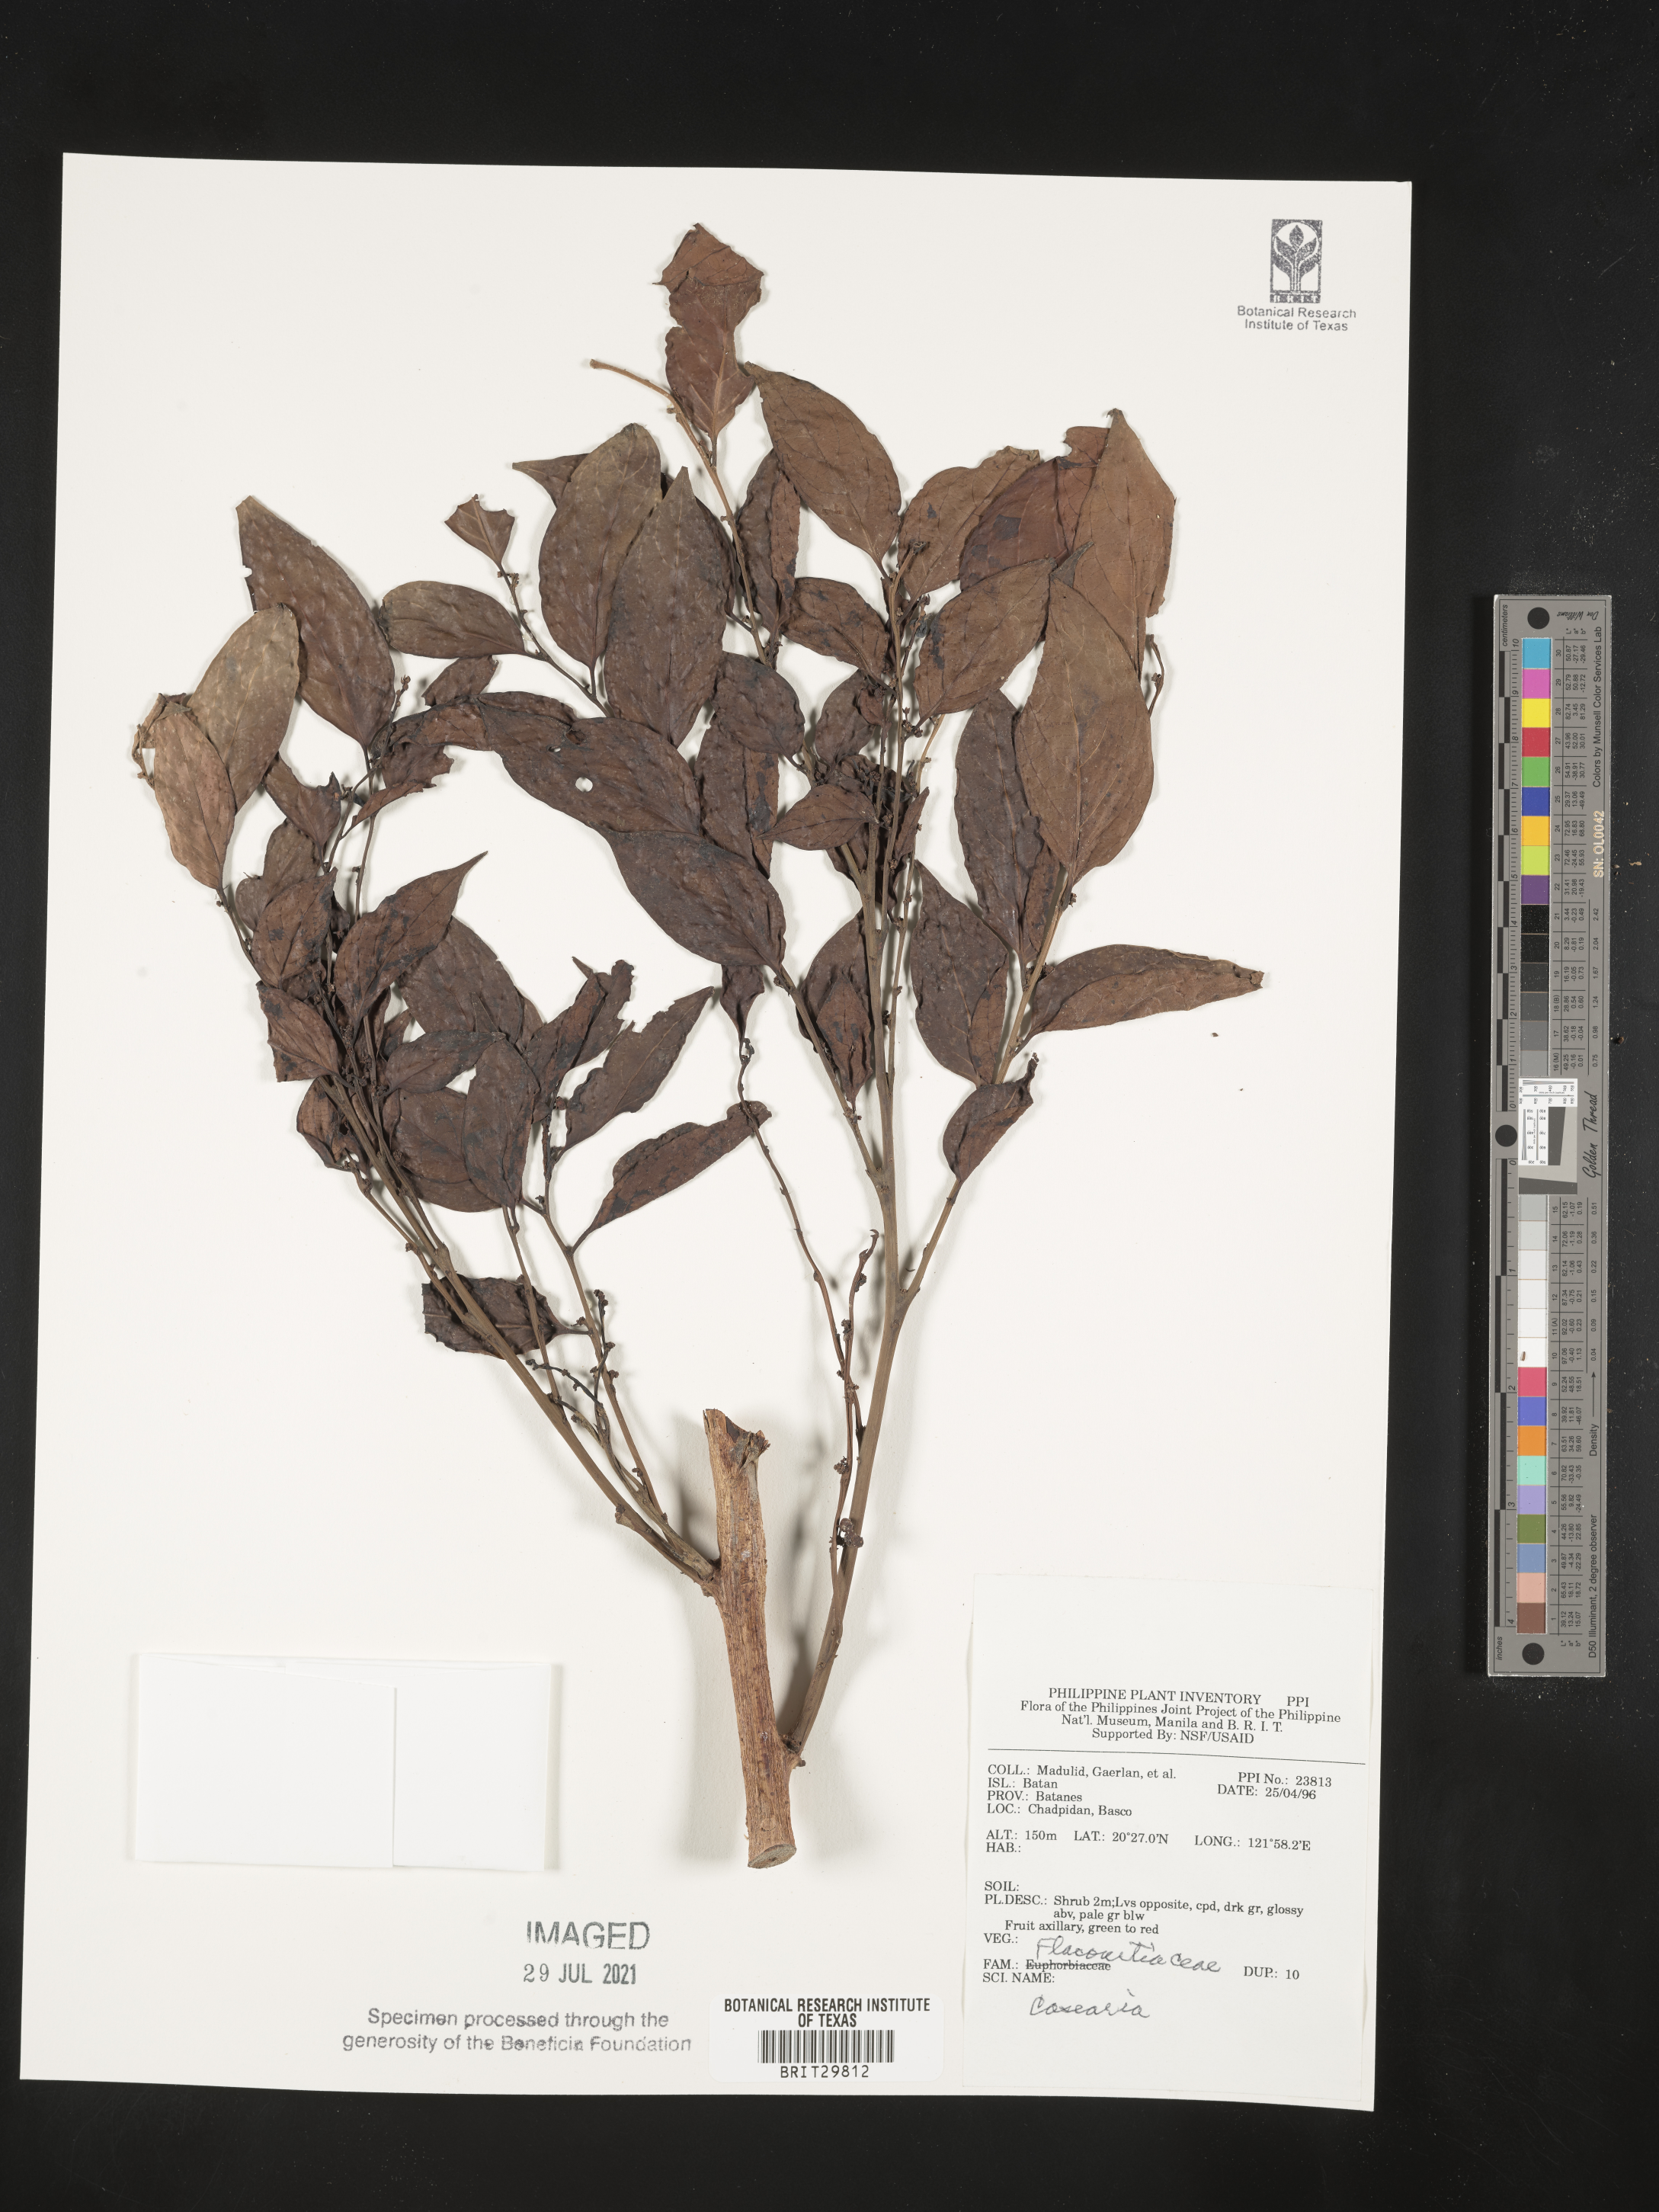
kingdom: Plantae
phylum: Tracheophyta
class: Magnoliopsida
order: Malpighiales
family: Salicaceae
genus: Casearia
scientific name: Casearia
